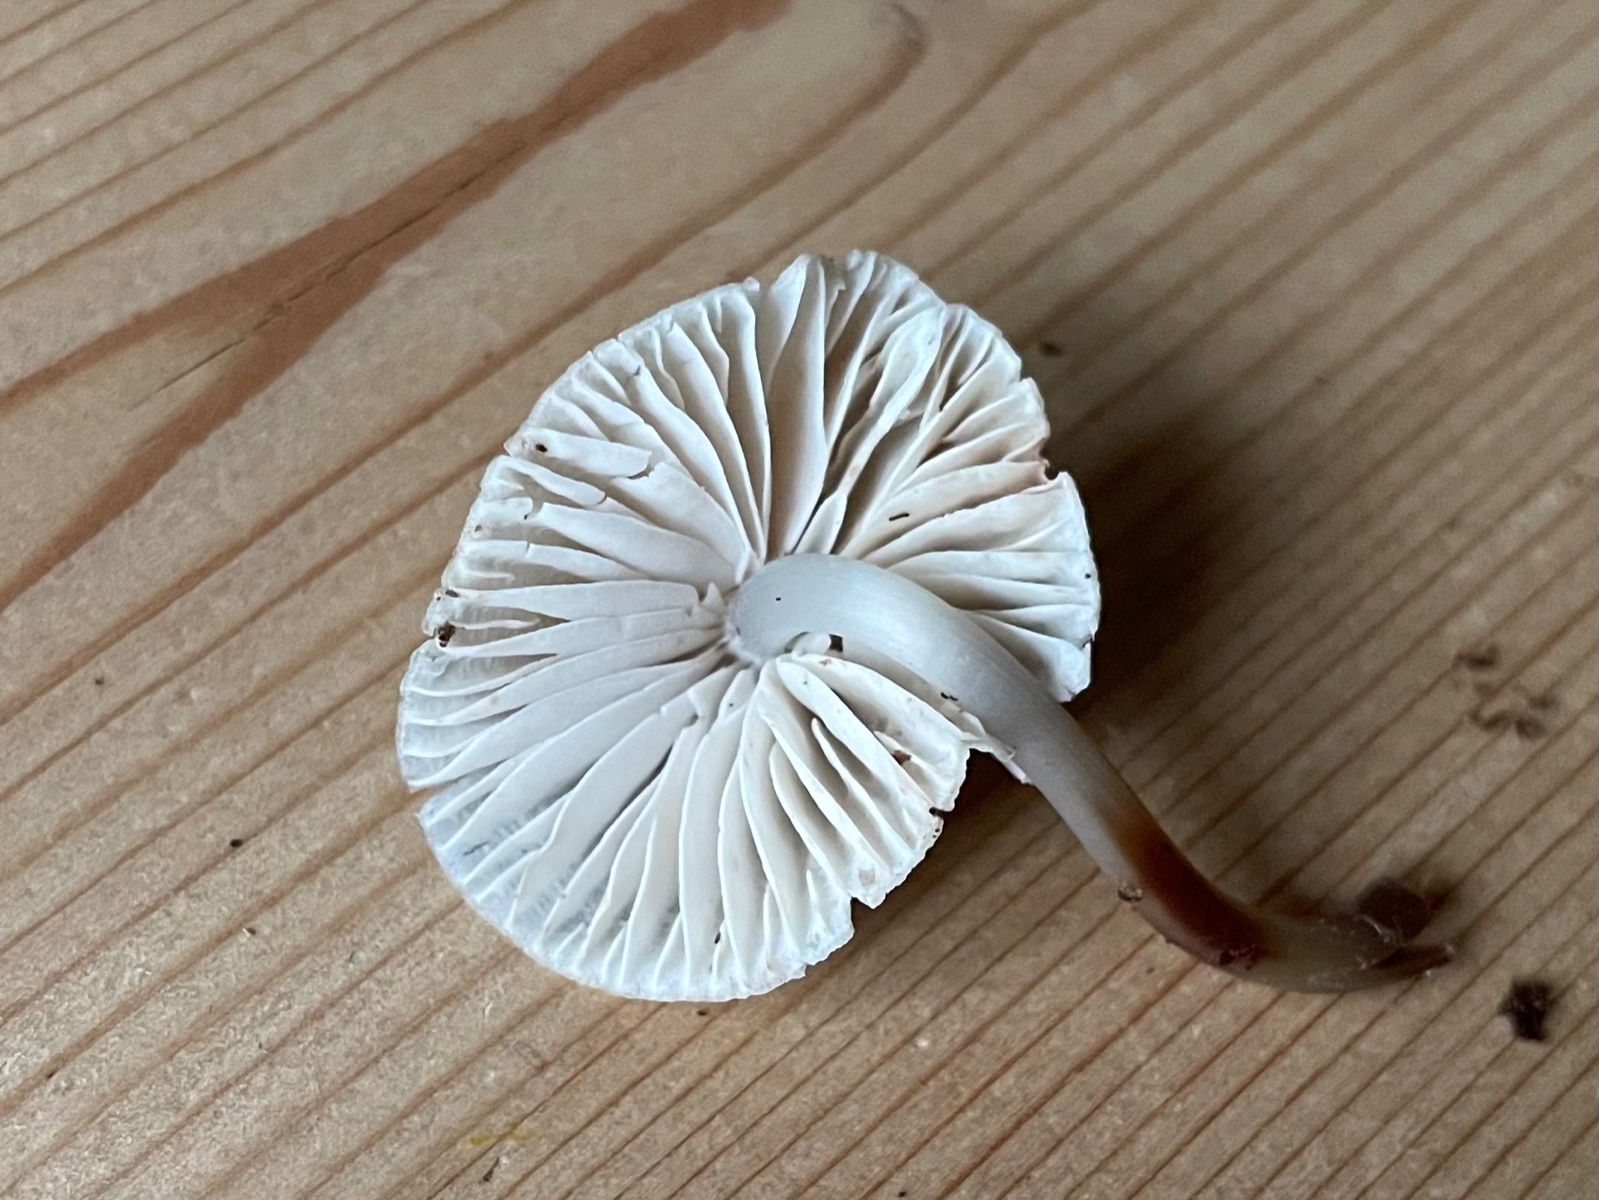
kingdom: Fungi
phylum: Basidiomycota
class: Agaricomycetes
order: Agaricales
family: Mycenaceae
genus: Mycena
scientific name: Mycena galericulata
